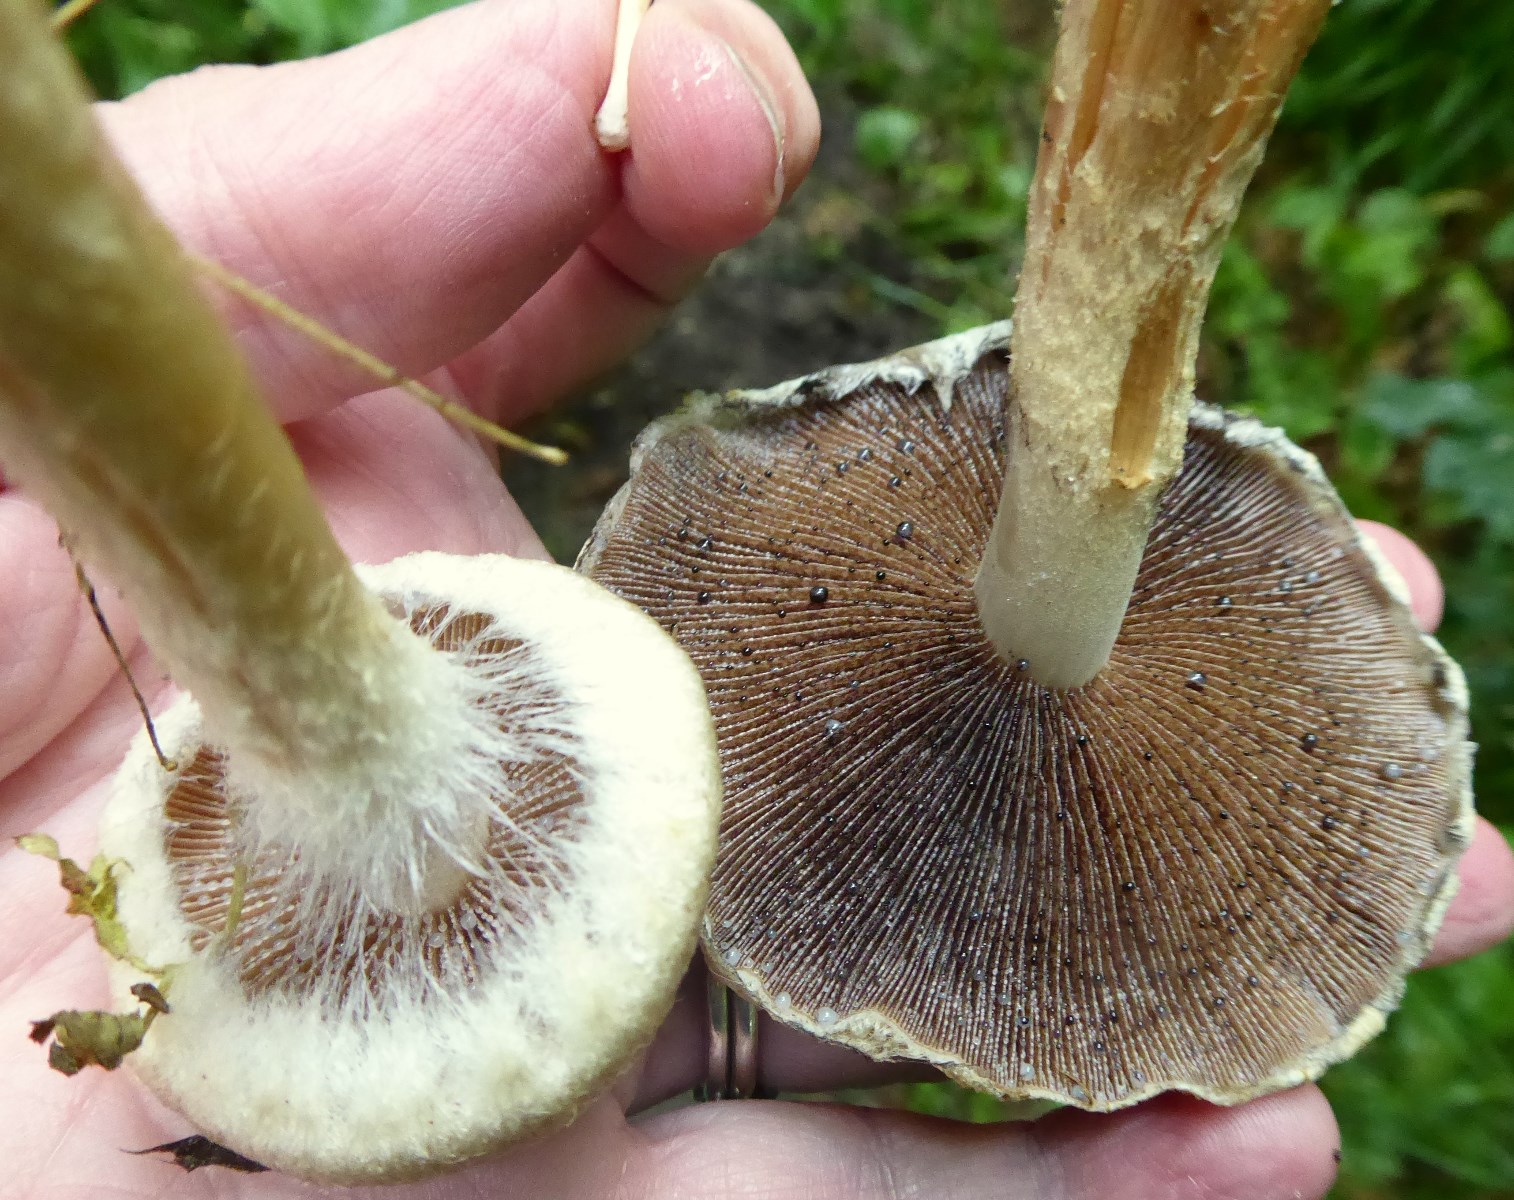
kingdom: Fungi
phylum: Basidiomycota
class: Agaricomycetes
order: Agaricales
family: Psathyrellaceae
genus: Lacrymaria
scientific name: Lacrymaria lacrymabunda
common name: grædende mørkhat
